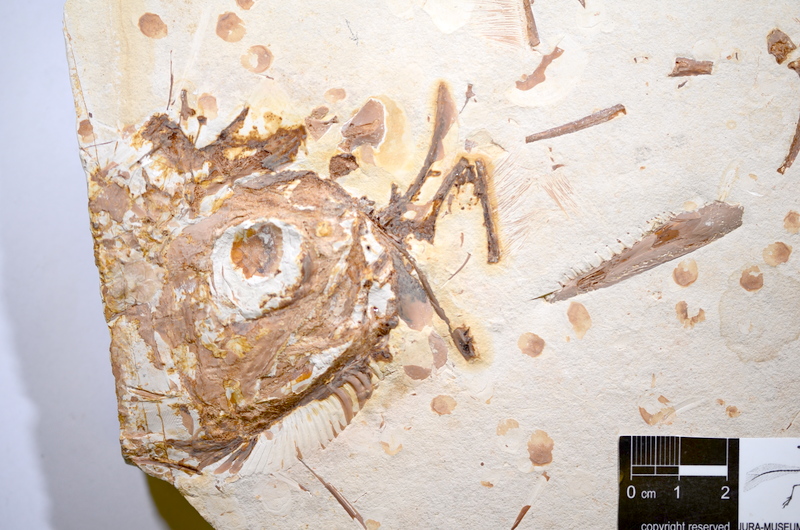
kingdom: Animalia
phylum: Chordata
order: Amiiformes
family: Caturidae
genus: Caturus
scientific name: Caturus
